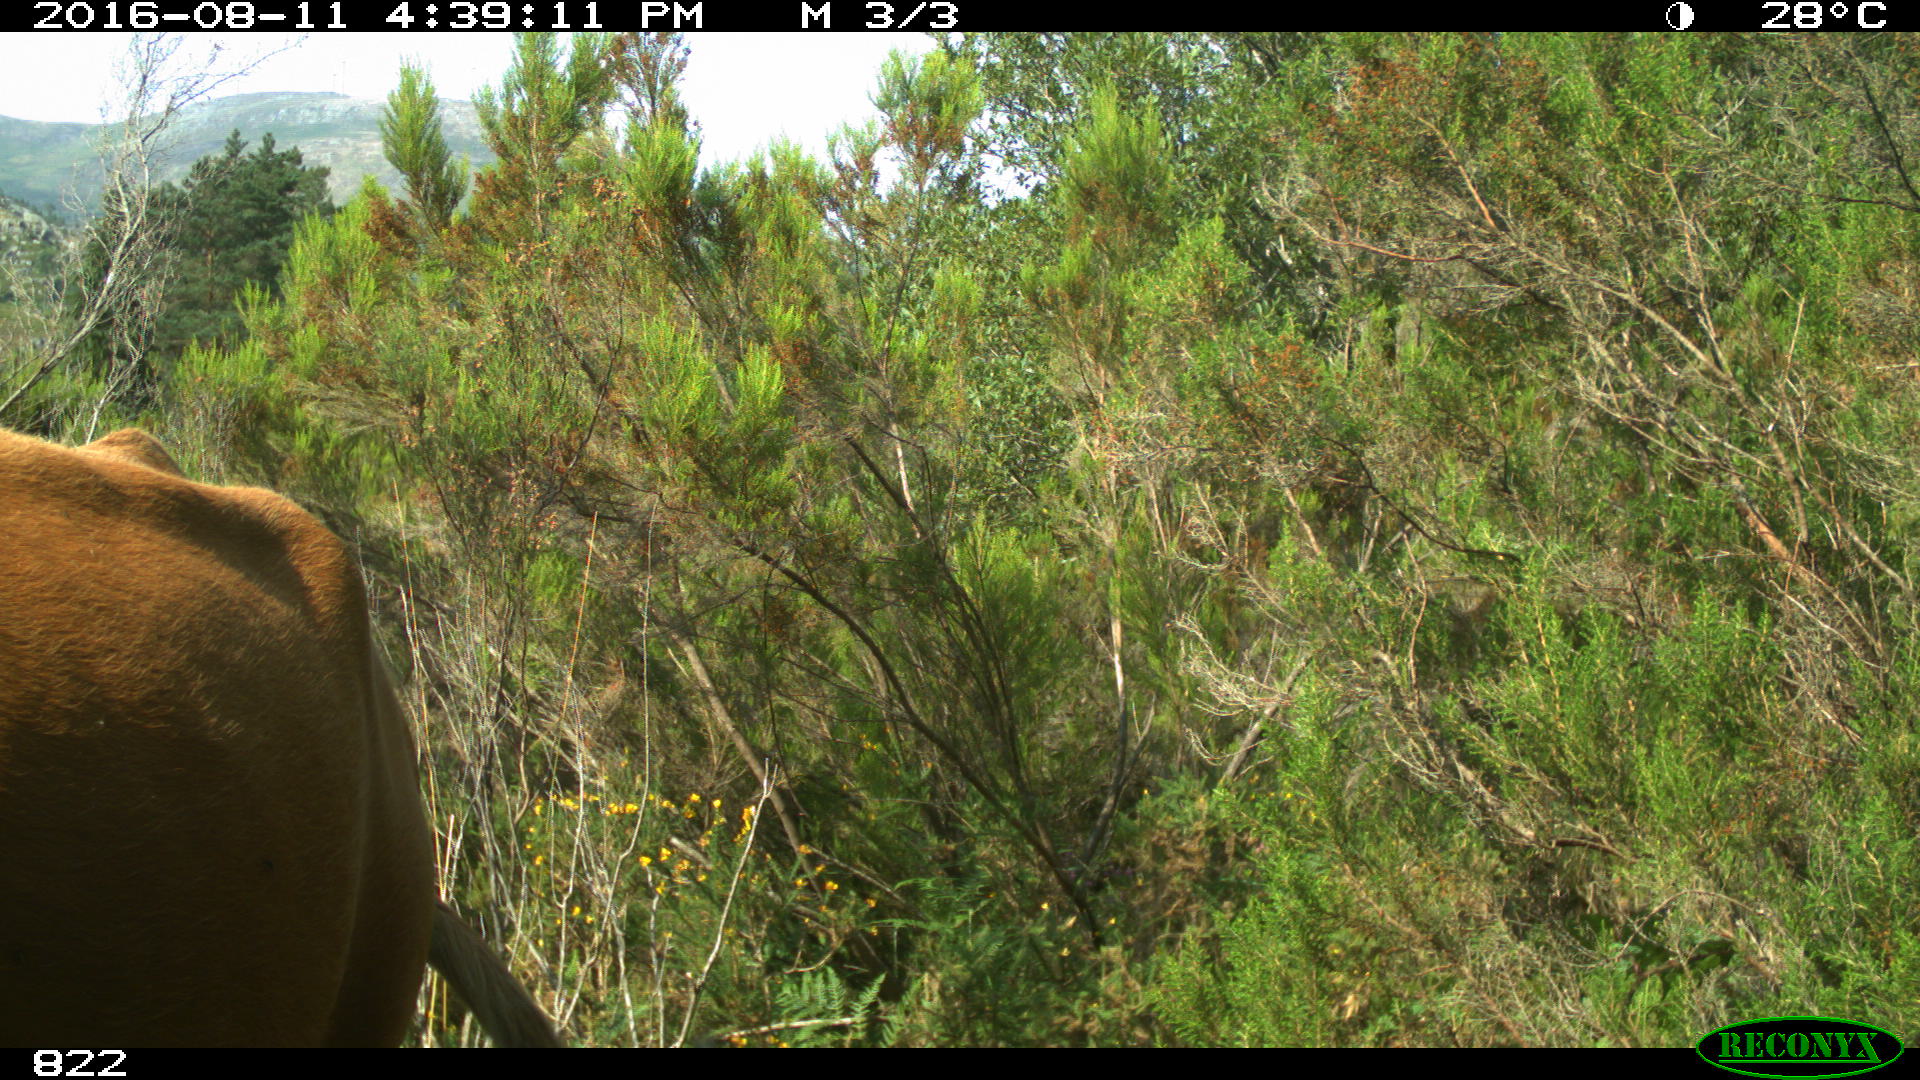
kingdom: Animalia
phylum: Chordata
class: Mammalia
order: Artiodactyla
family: Bovidae
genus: Bos
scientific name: Bos taurus
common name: Domesticated cattle
